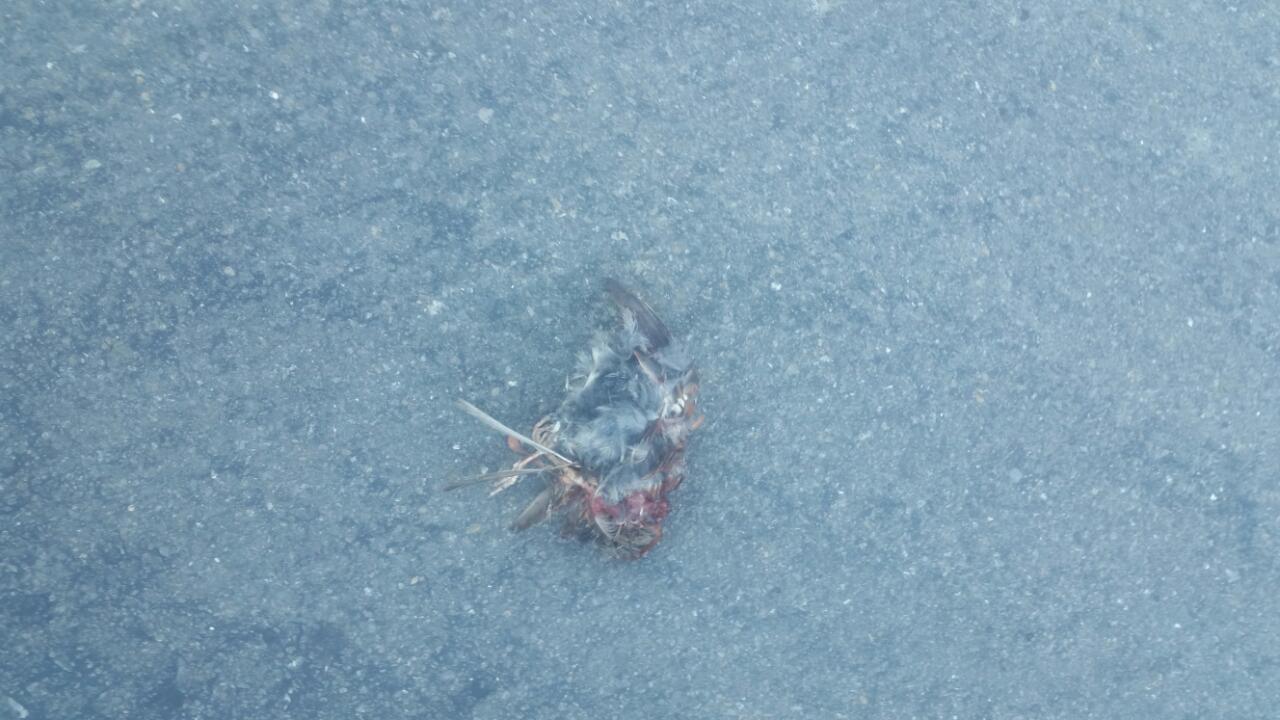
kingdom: Animalia
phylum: Chordata
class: Aves
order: Passeriformes
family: Passeriformes
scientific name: Passeriformes
